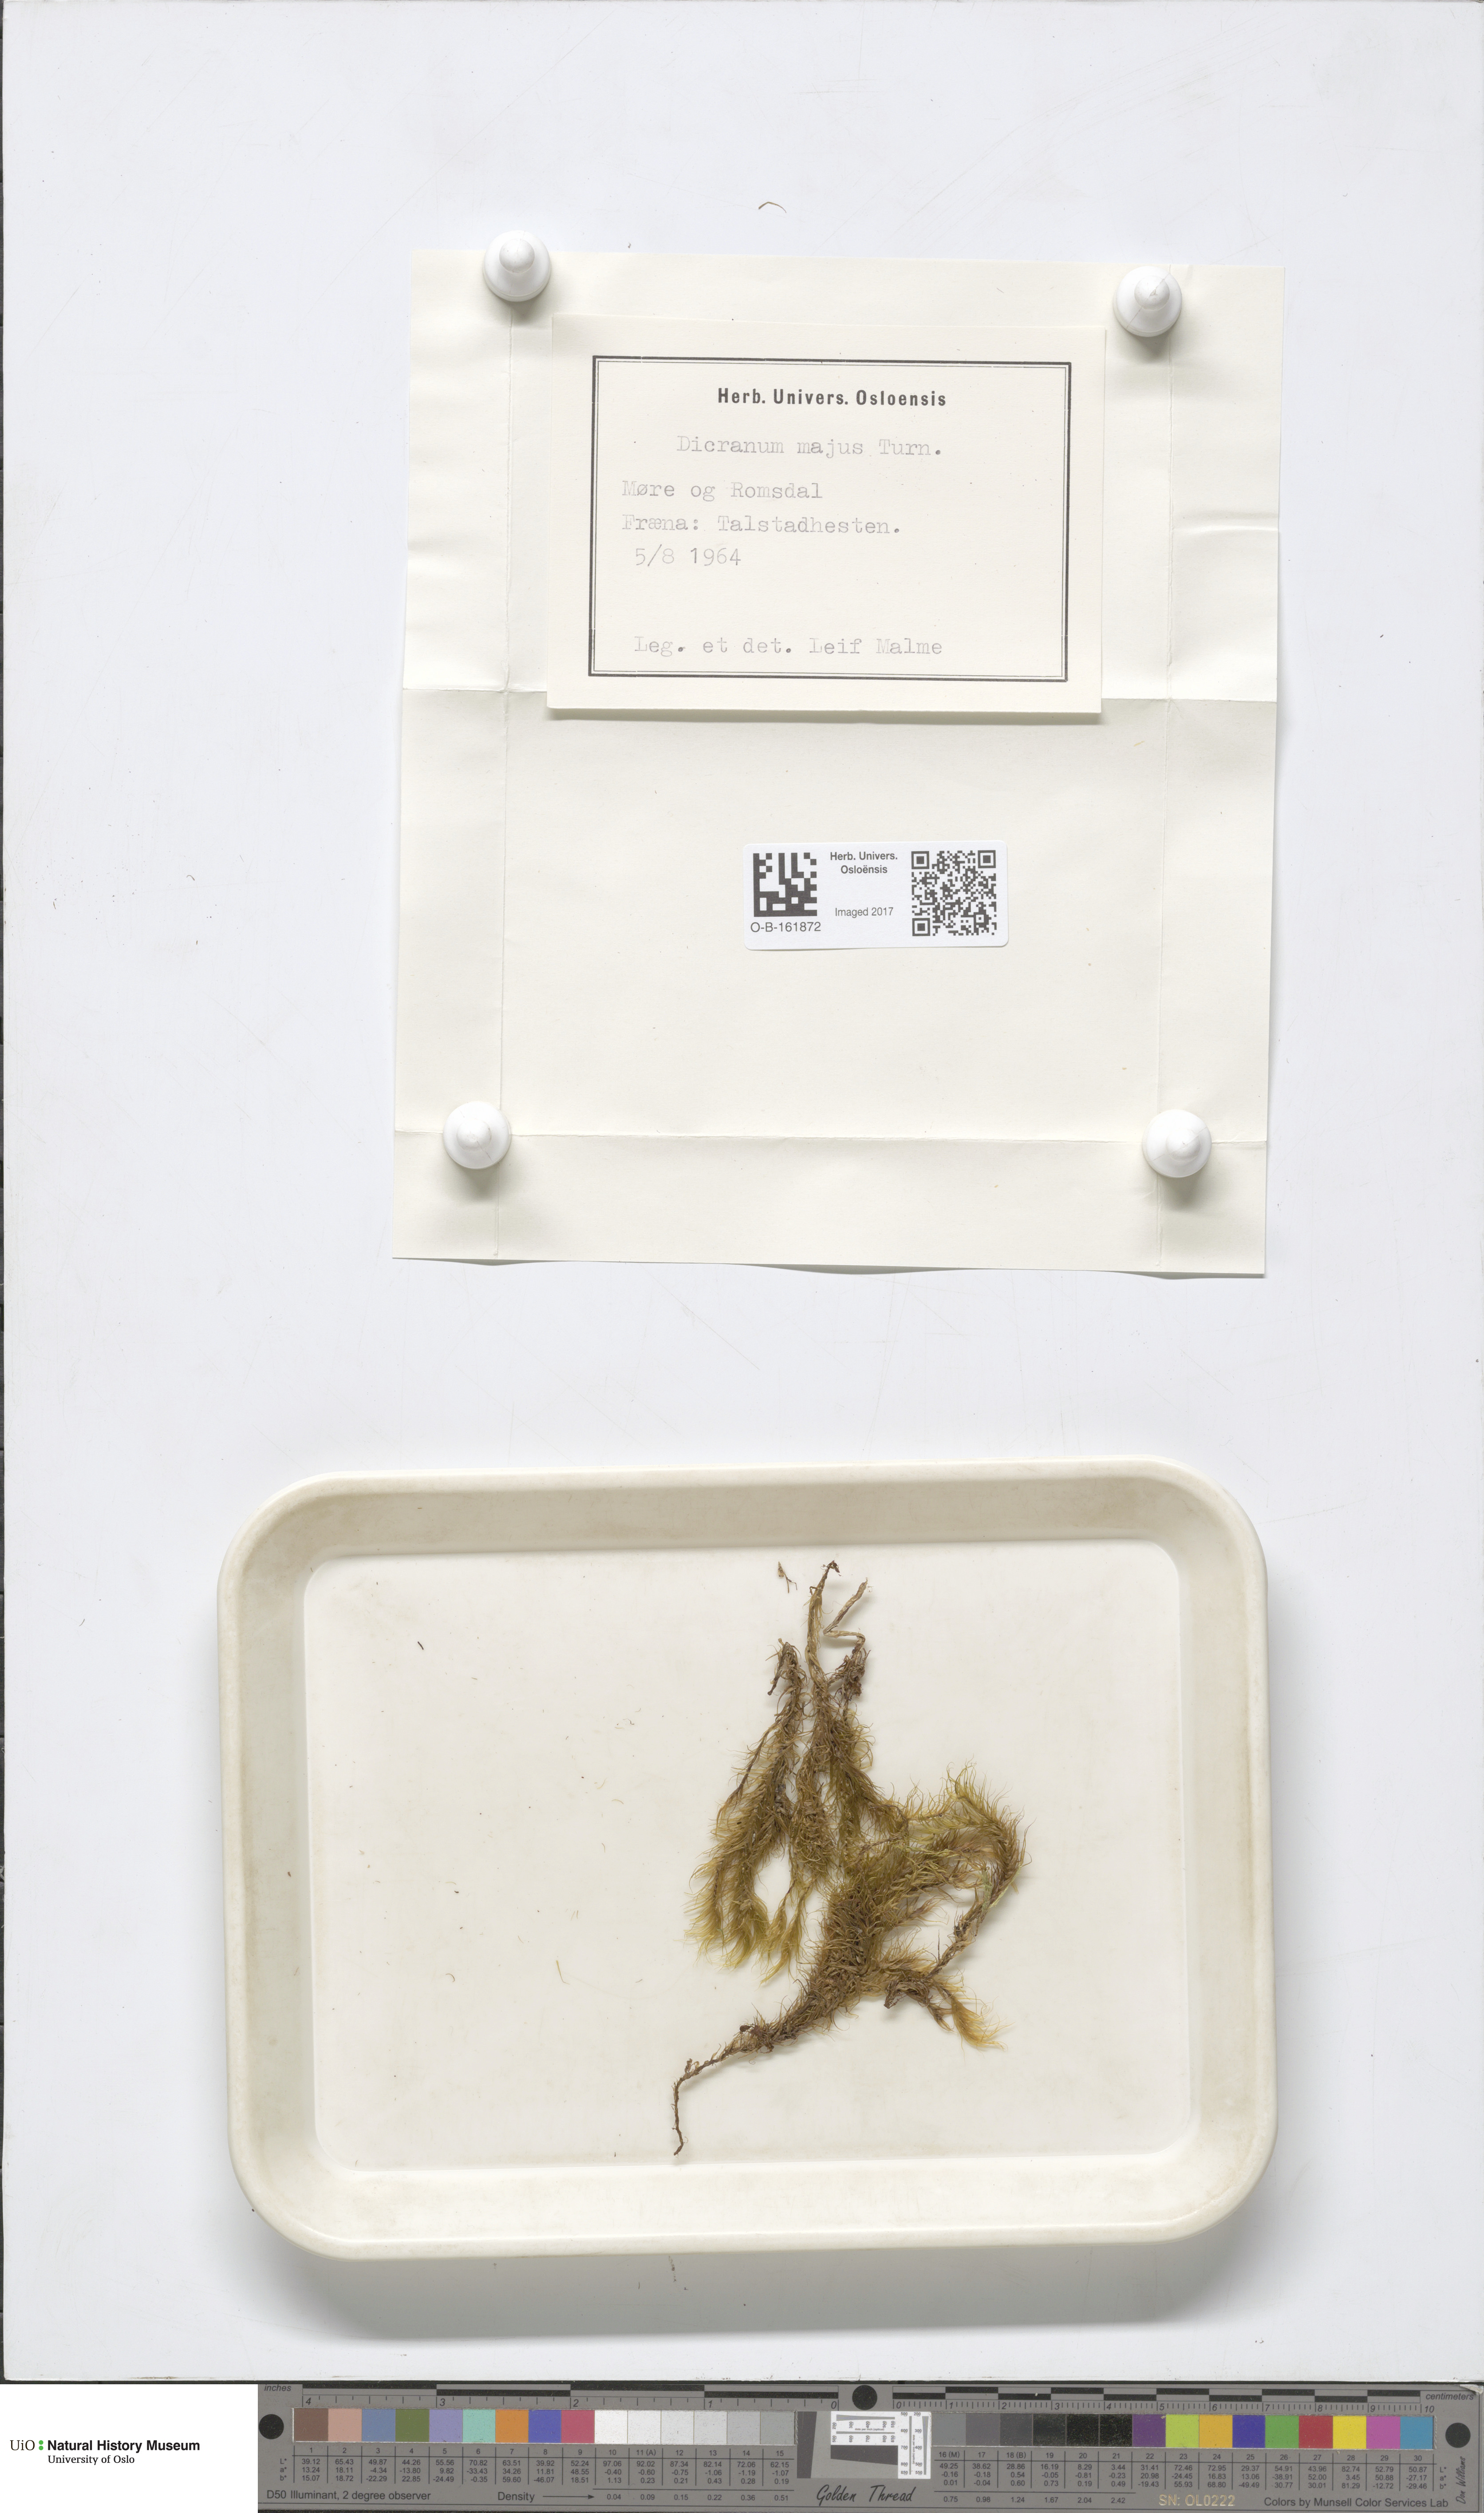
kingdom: Plantae
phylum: Bryophyta
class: Bryopsida
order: Dicranales
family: Dicranaceae
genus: Dicranum
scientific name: Dicranum majus
